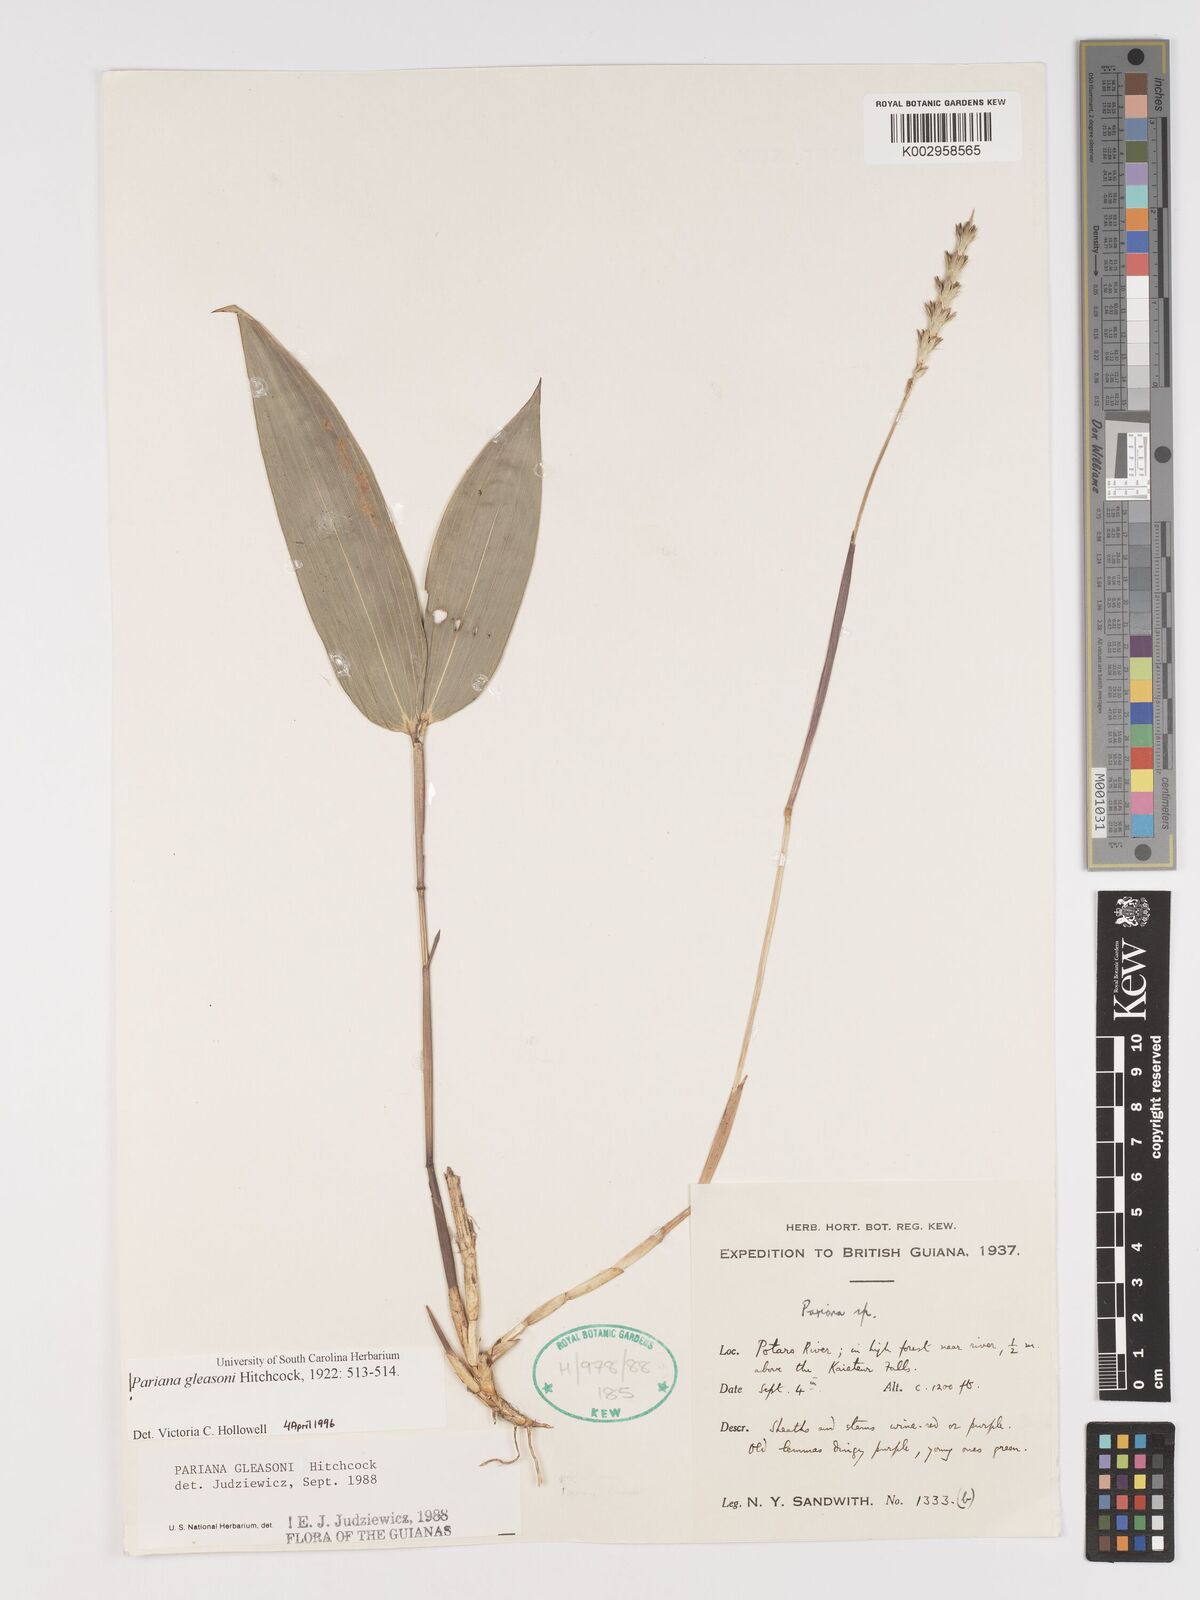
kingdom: Plantae
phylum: Tracheophyta
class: Liliopsida
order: Poales
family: Poaceae
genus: Pariana
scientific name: Pariana radiciflora
